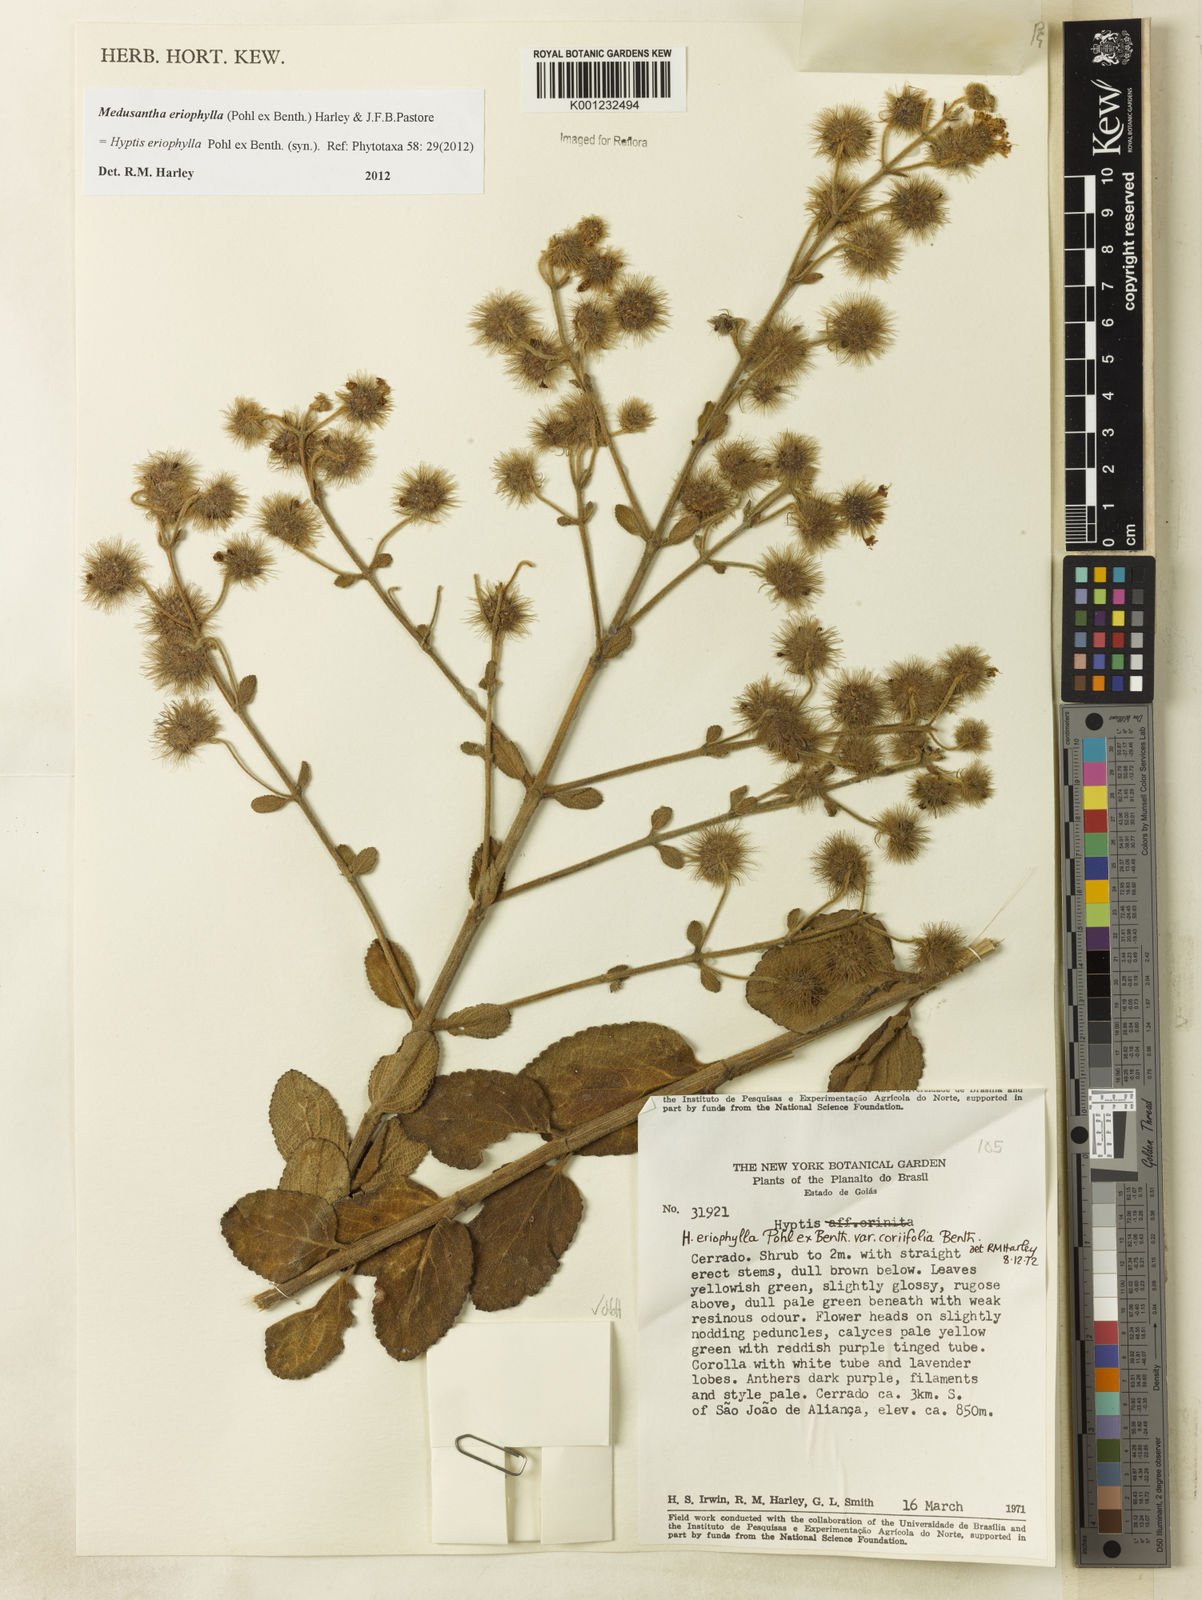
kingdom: Plantae
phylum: Tracheophyta
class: Magnoliopsida
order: Lamiales
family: Lamiaceae
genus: Medusantha
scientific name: Medusantha eriophylla
